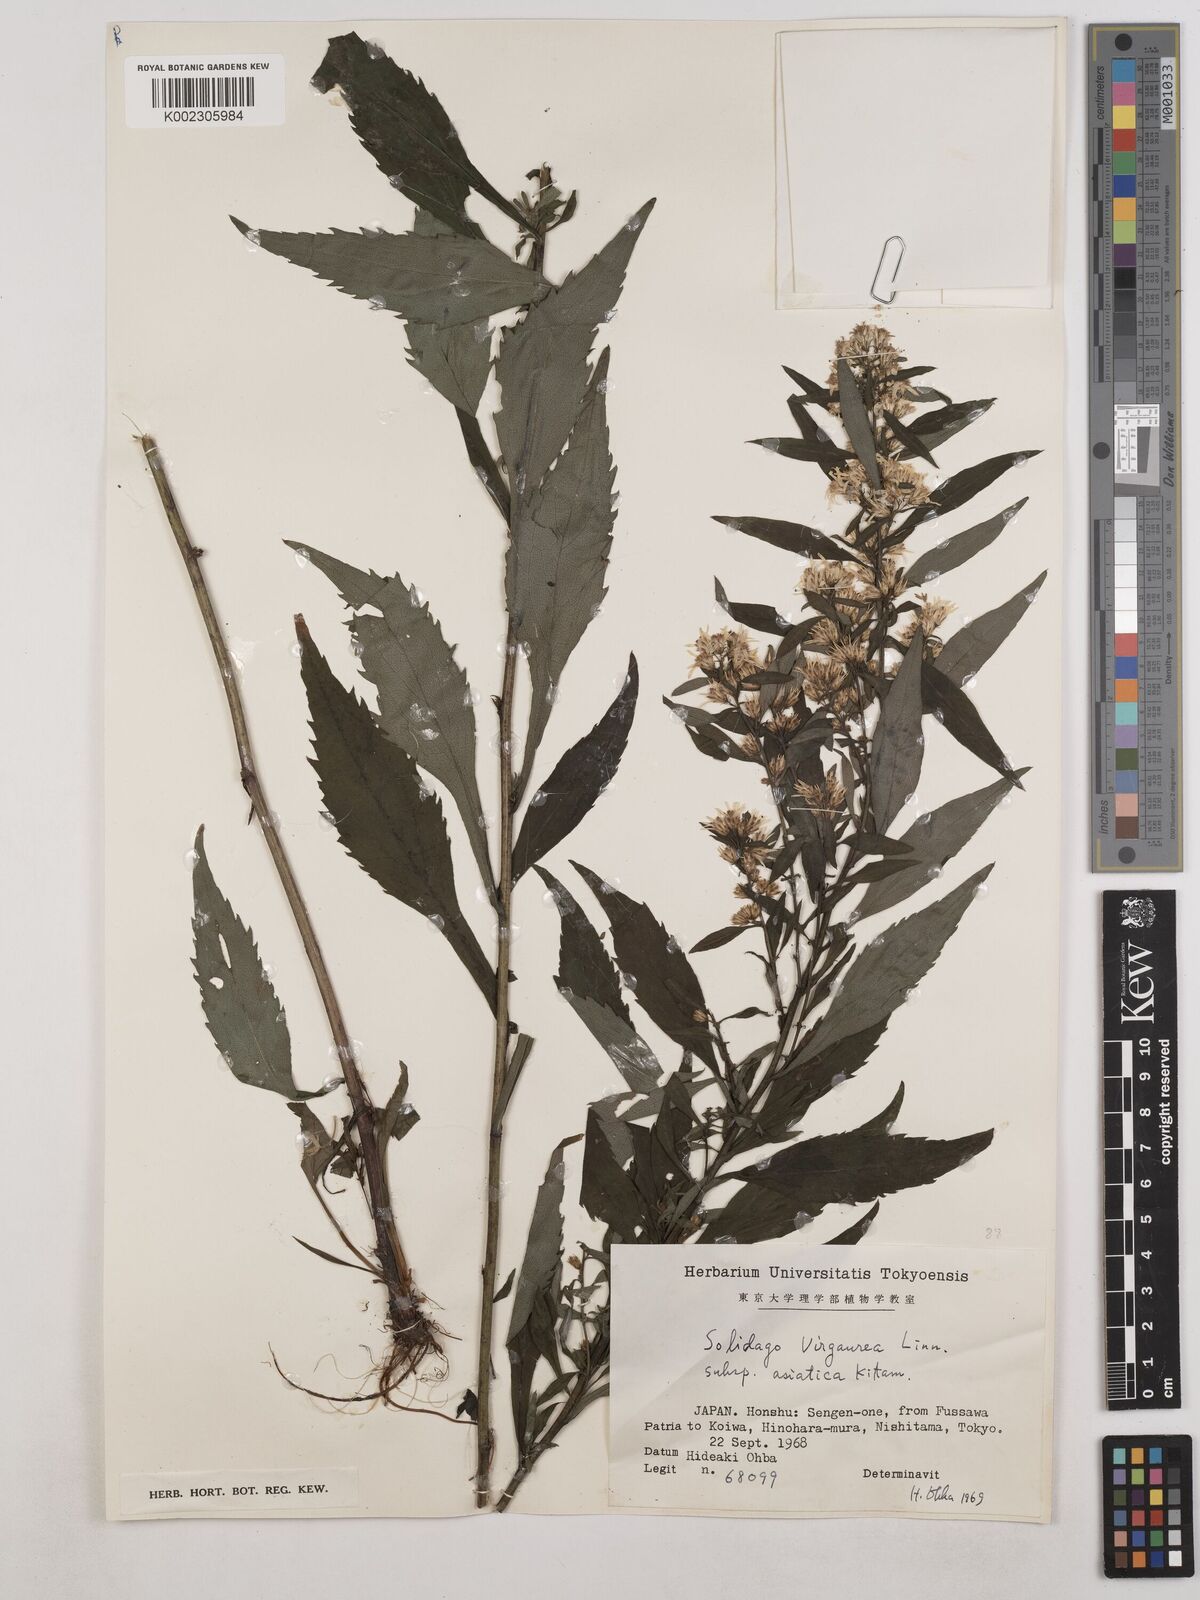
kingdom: Plantae
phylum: Tracheophyta
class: Magnoliopsida
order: Asterales
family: Asteraceae
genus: Solidago
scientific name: Solidago virgaurea
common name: Goldenrod
